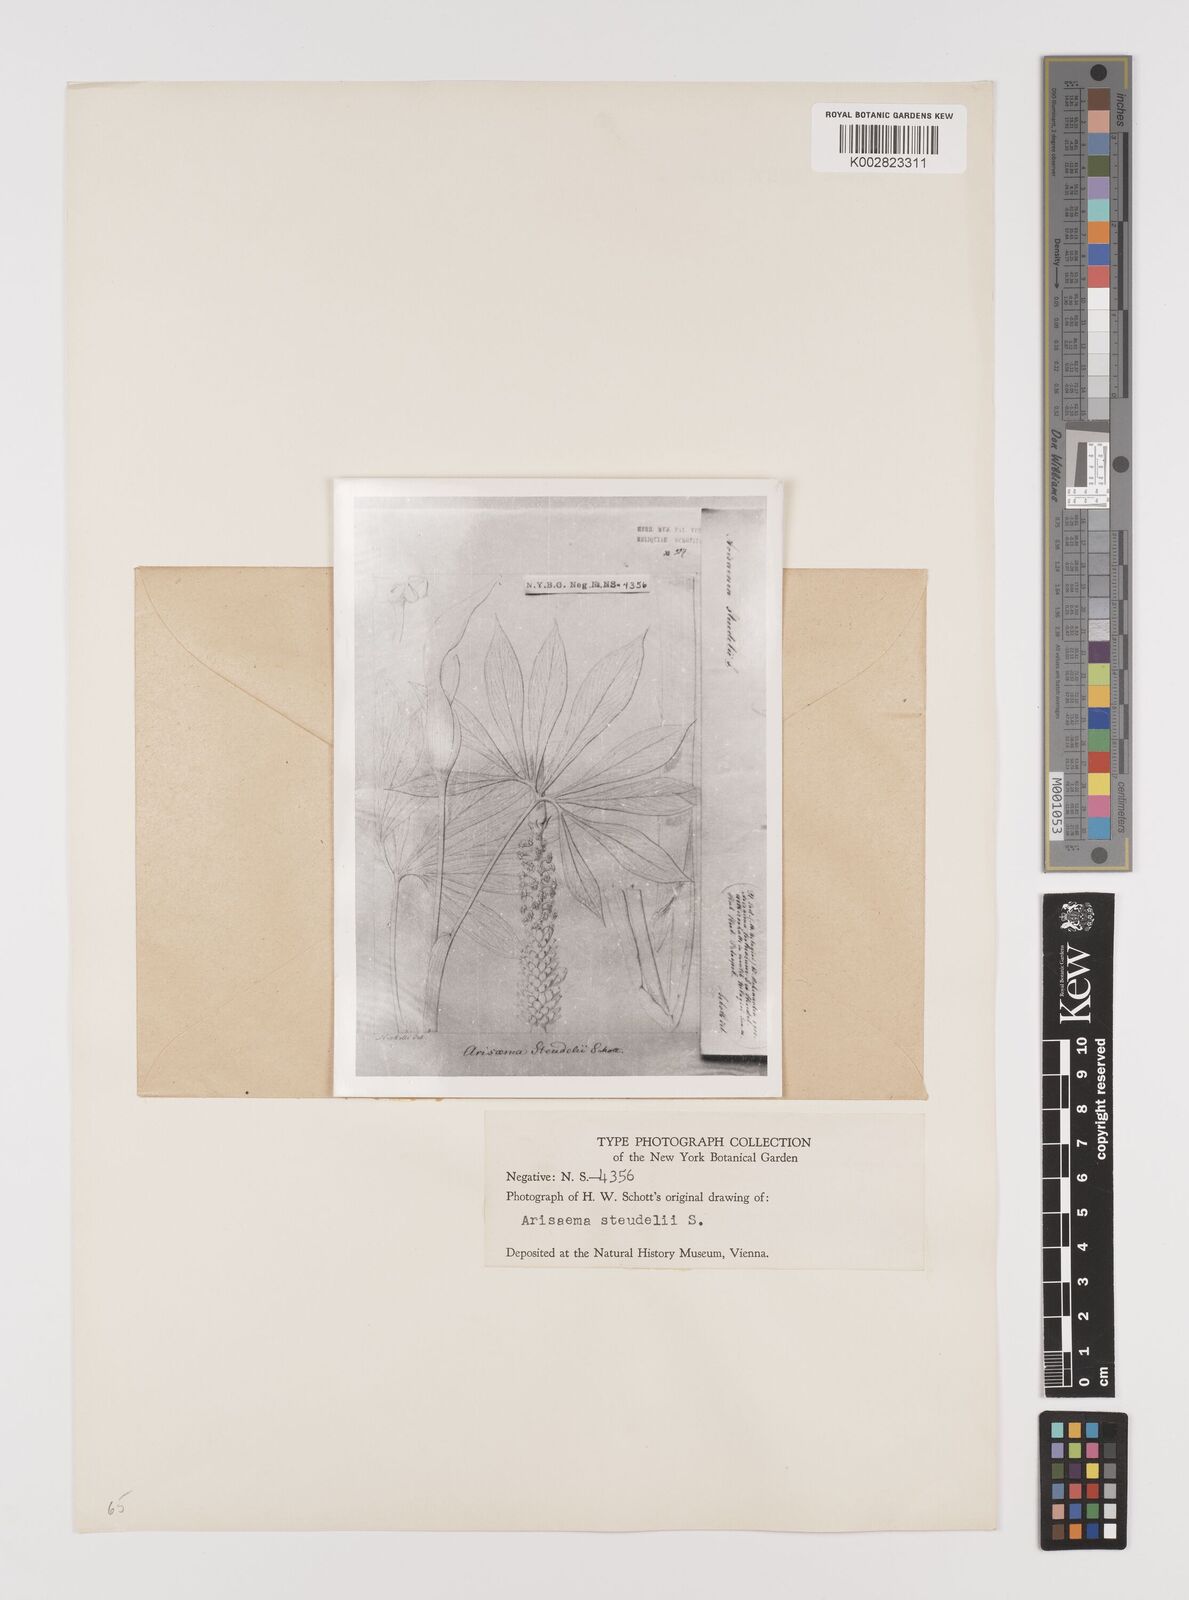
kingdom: Plantae
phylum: Tracheophyta
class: Liliopsida
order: Alismatales
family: Araceae
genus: Arisaema
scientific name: Arisaema tortuosum
